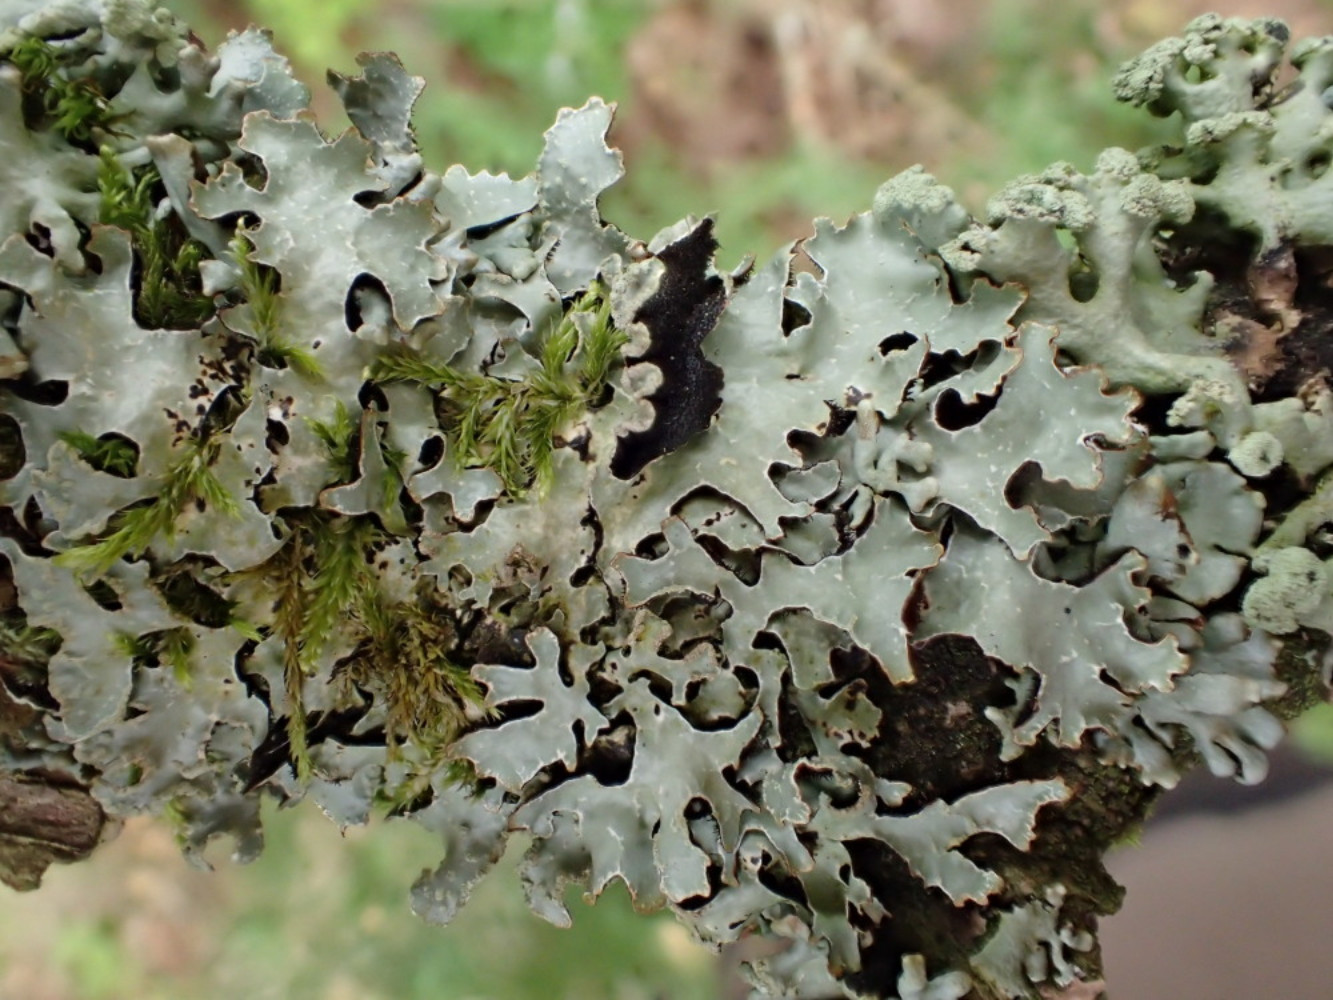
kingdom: Fungi
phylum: Ascomycota
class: Lecanoromycetes
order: Lecanorales
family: Parmeliaceae
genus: Parmelia
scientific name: Parmelia sulcata
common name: rynket skållav
